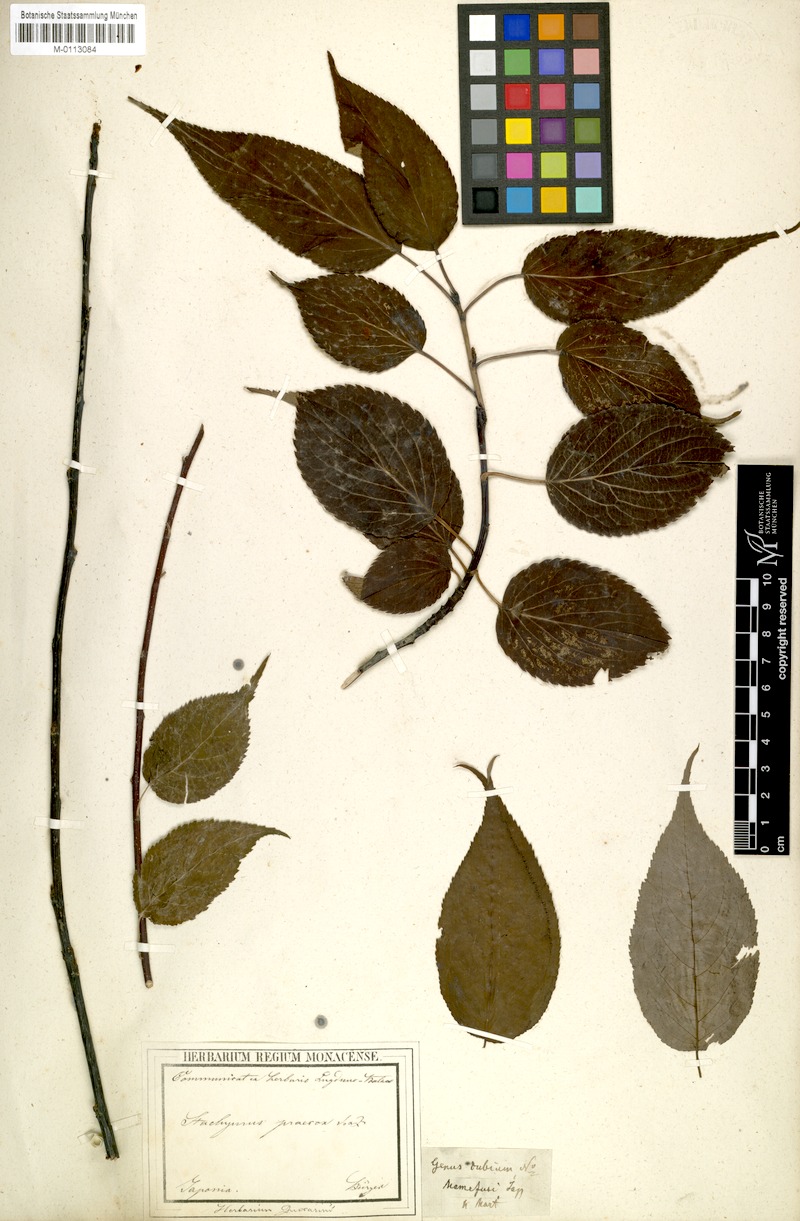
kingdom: Plantae
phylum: Tracheophyta
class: Magnoliopsida
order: Crossosomatales
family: Stachyuraceae
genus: Stachyurus
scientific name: Stachyurus praecox
